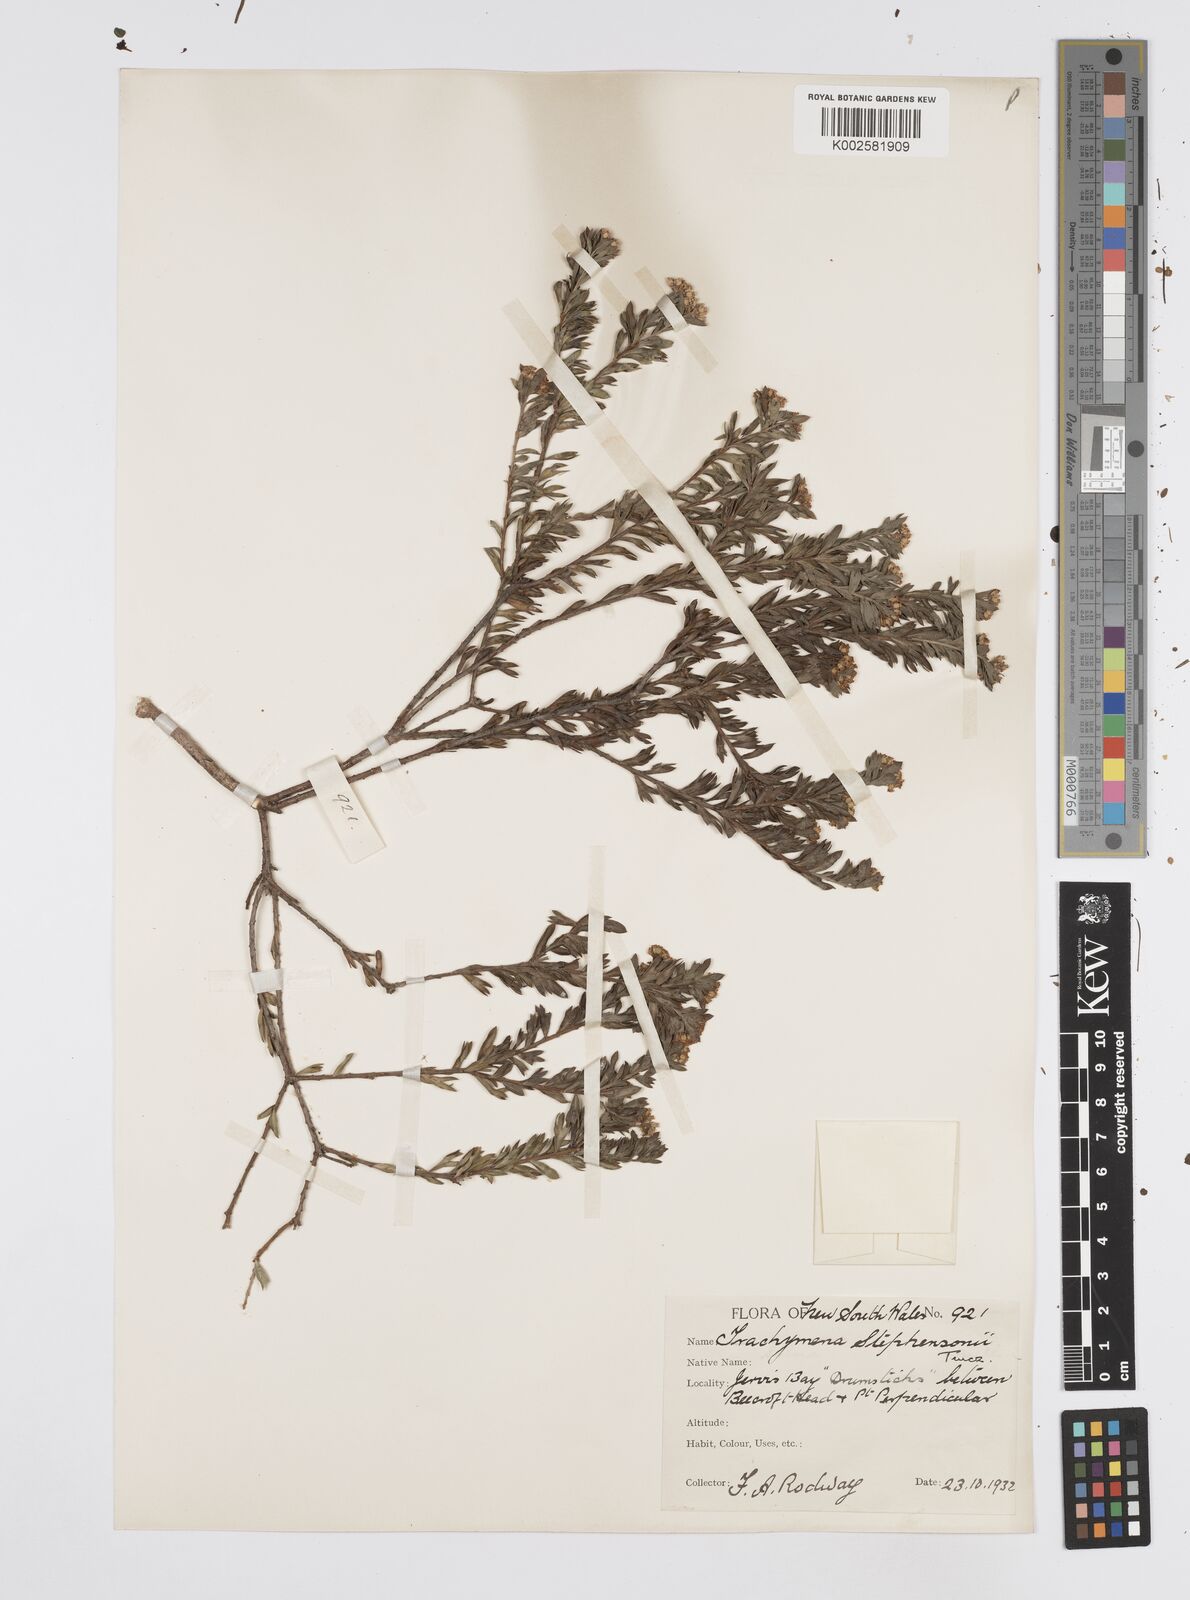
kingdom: Plantae
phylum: Tracheophyta
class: Magnoliopsida
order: Apiales
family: Apiaceae
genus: Platysace
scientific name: Platysace stephensonii
